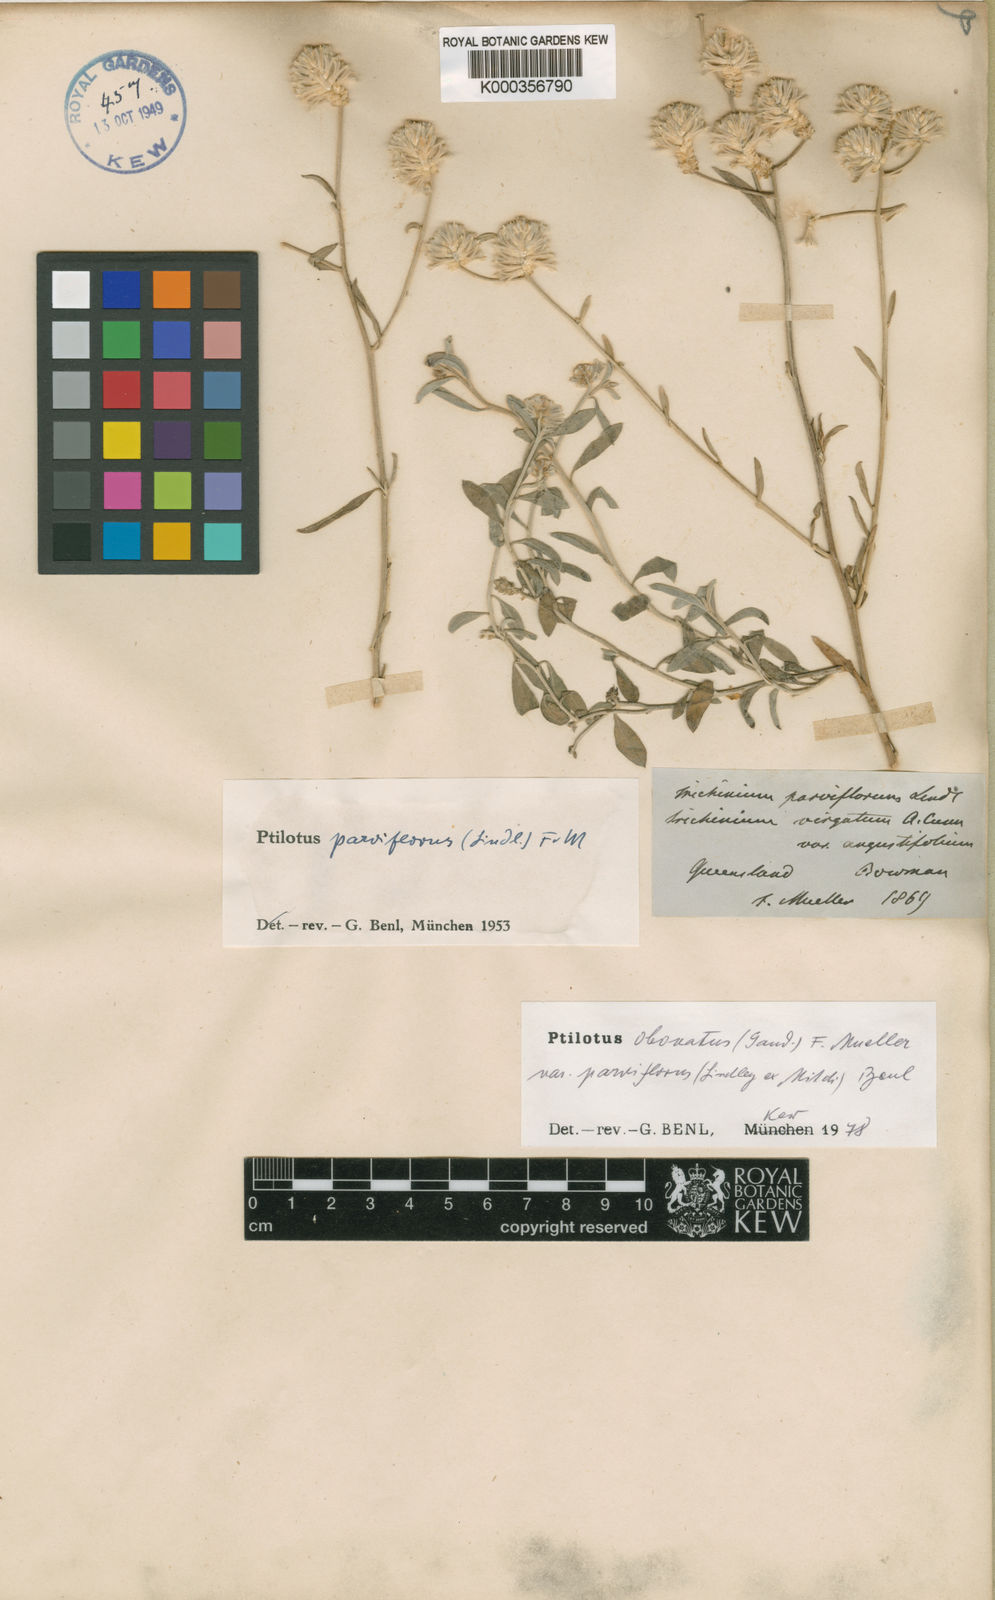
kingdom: Plantae
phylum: Tracheophyta
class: Magnoliopsida
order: Caryophyllales
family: Amaranthaceae
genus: Ptilotus
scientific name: Ptilotus parviflorus
